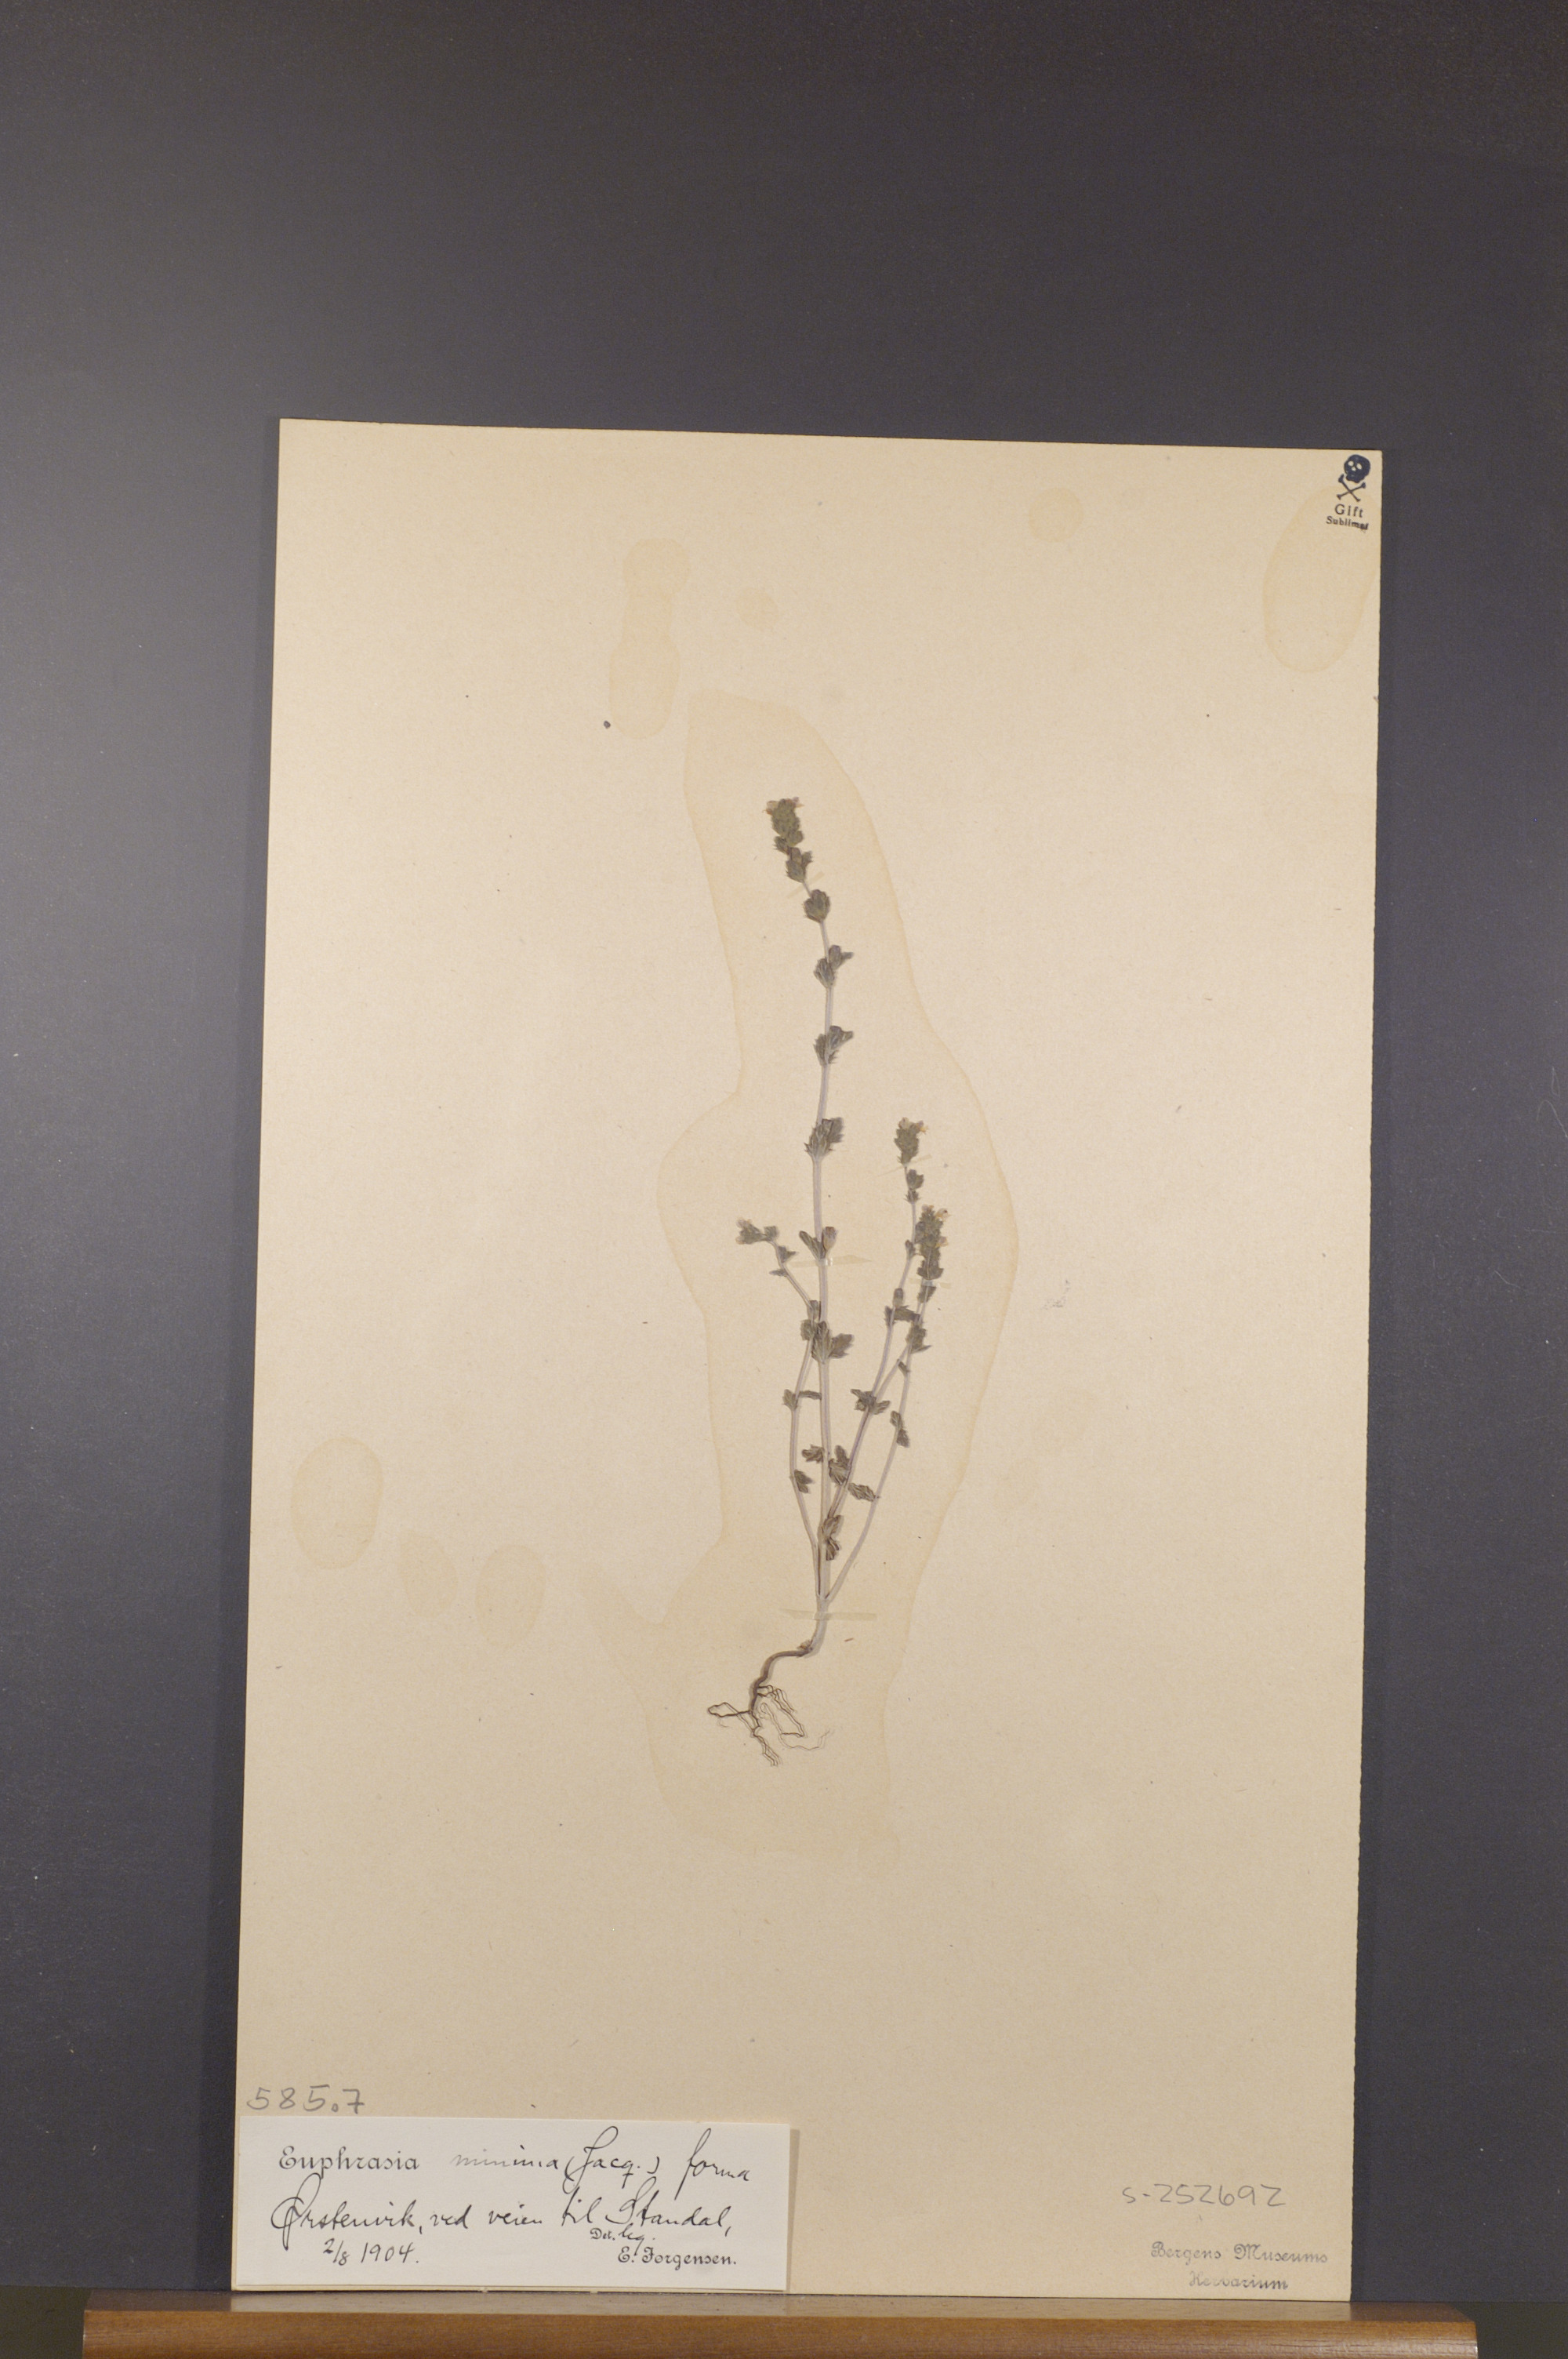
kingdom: Plantae
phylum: Tracheophyta
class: Magnoliopsida
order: Lamiales
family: Orobanchaceae
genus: Euphrasia
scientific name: Euphrasia minima
